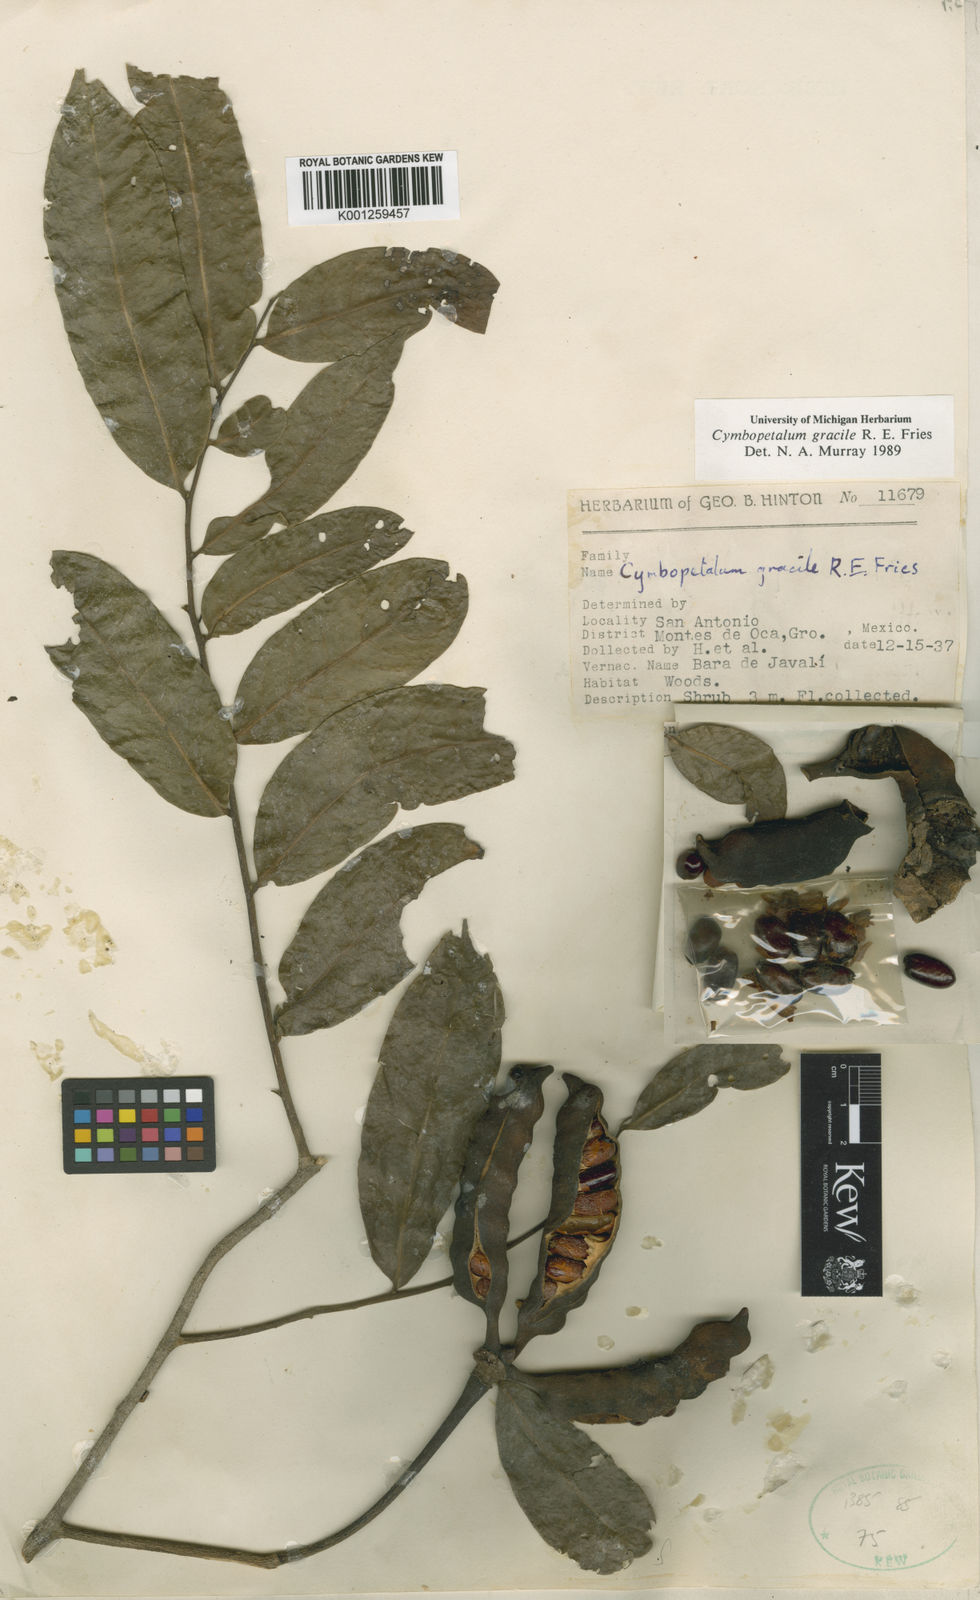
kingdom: Plantae
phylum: Tracheophyta
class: Magnoliopsida
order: Magnoliales
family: Annonaceae
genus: Cymbopetalum
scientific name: Cymbopetalum gracile
